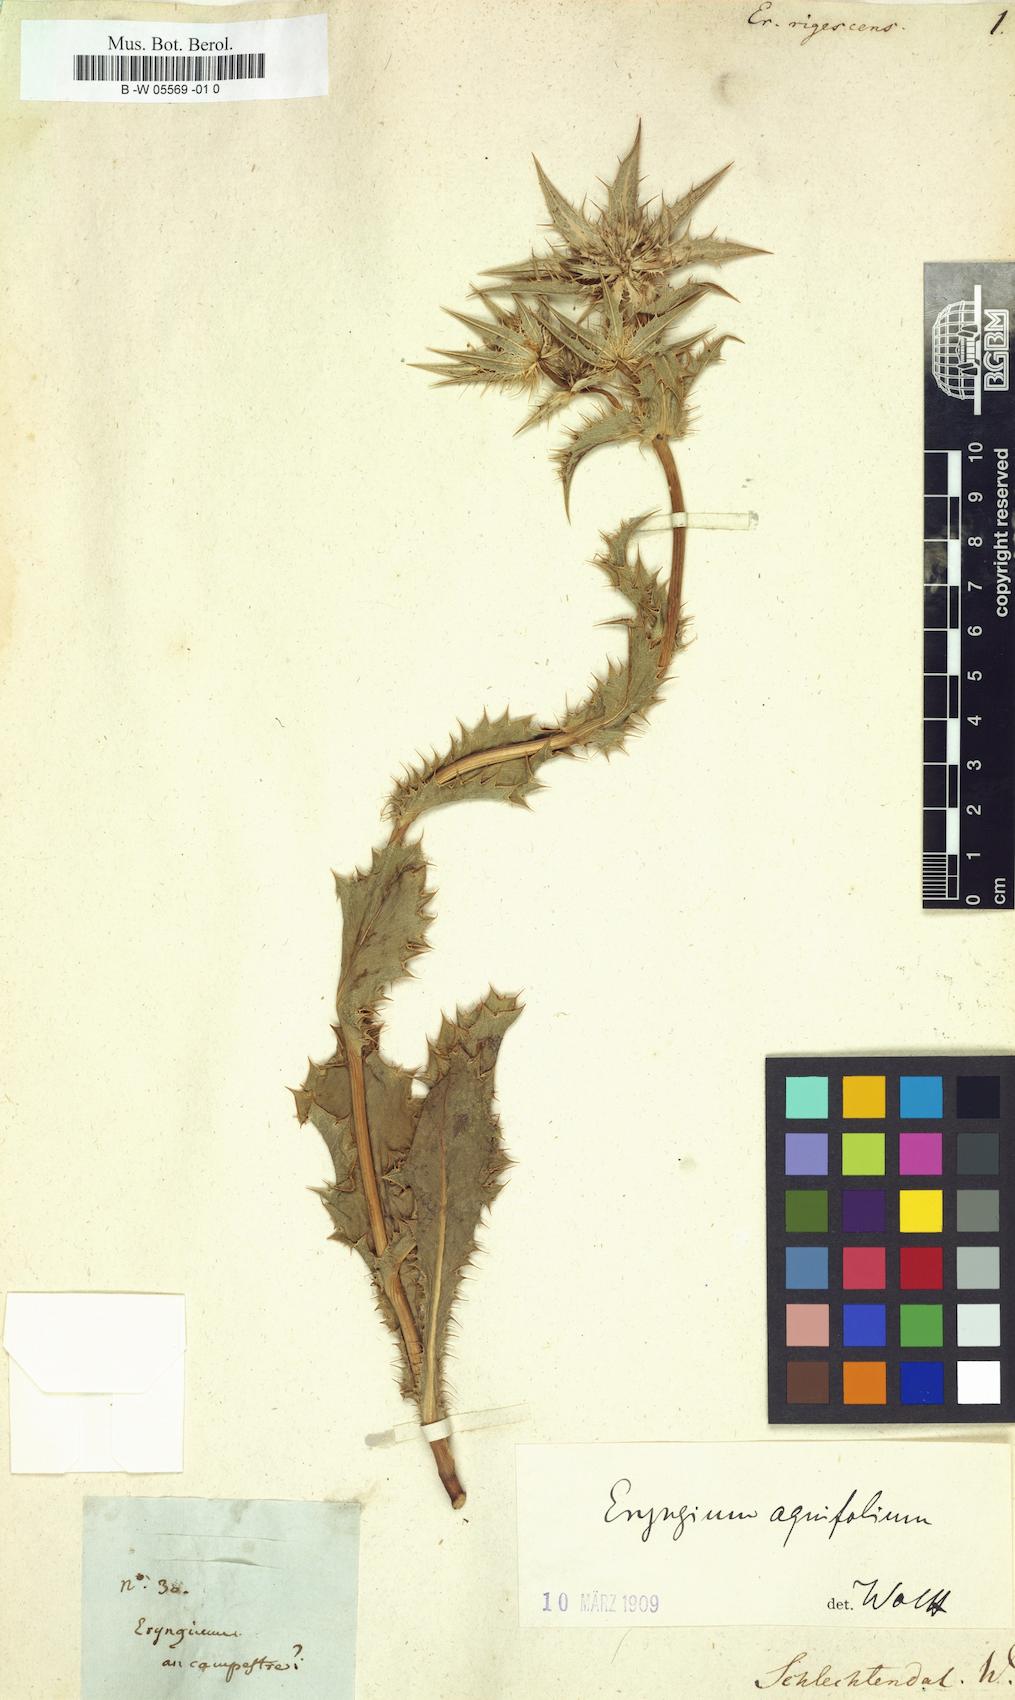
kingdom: Plantae
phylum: Tracheophyta
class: Magnoliopsida
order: Apiales
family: Apiaceae
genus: Eryngium
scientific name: Eryngium
